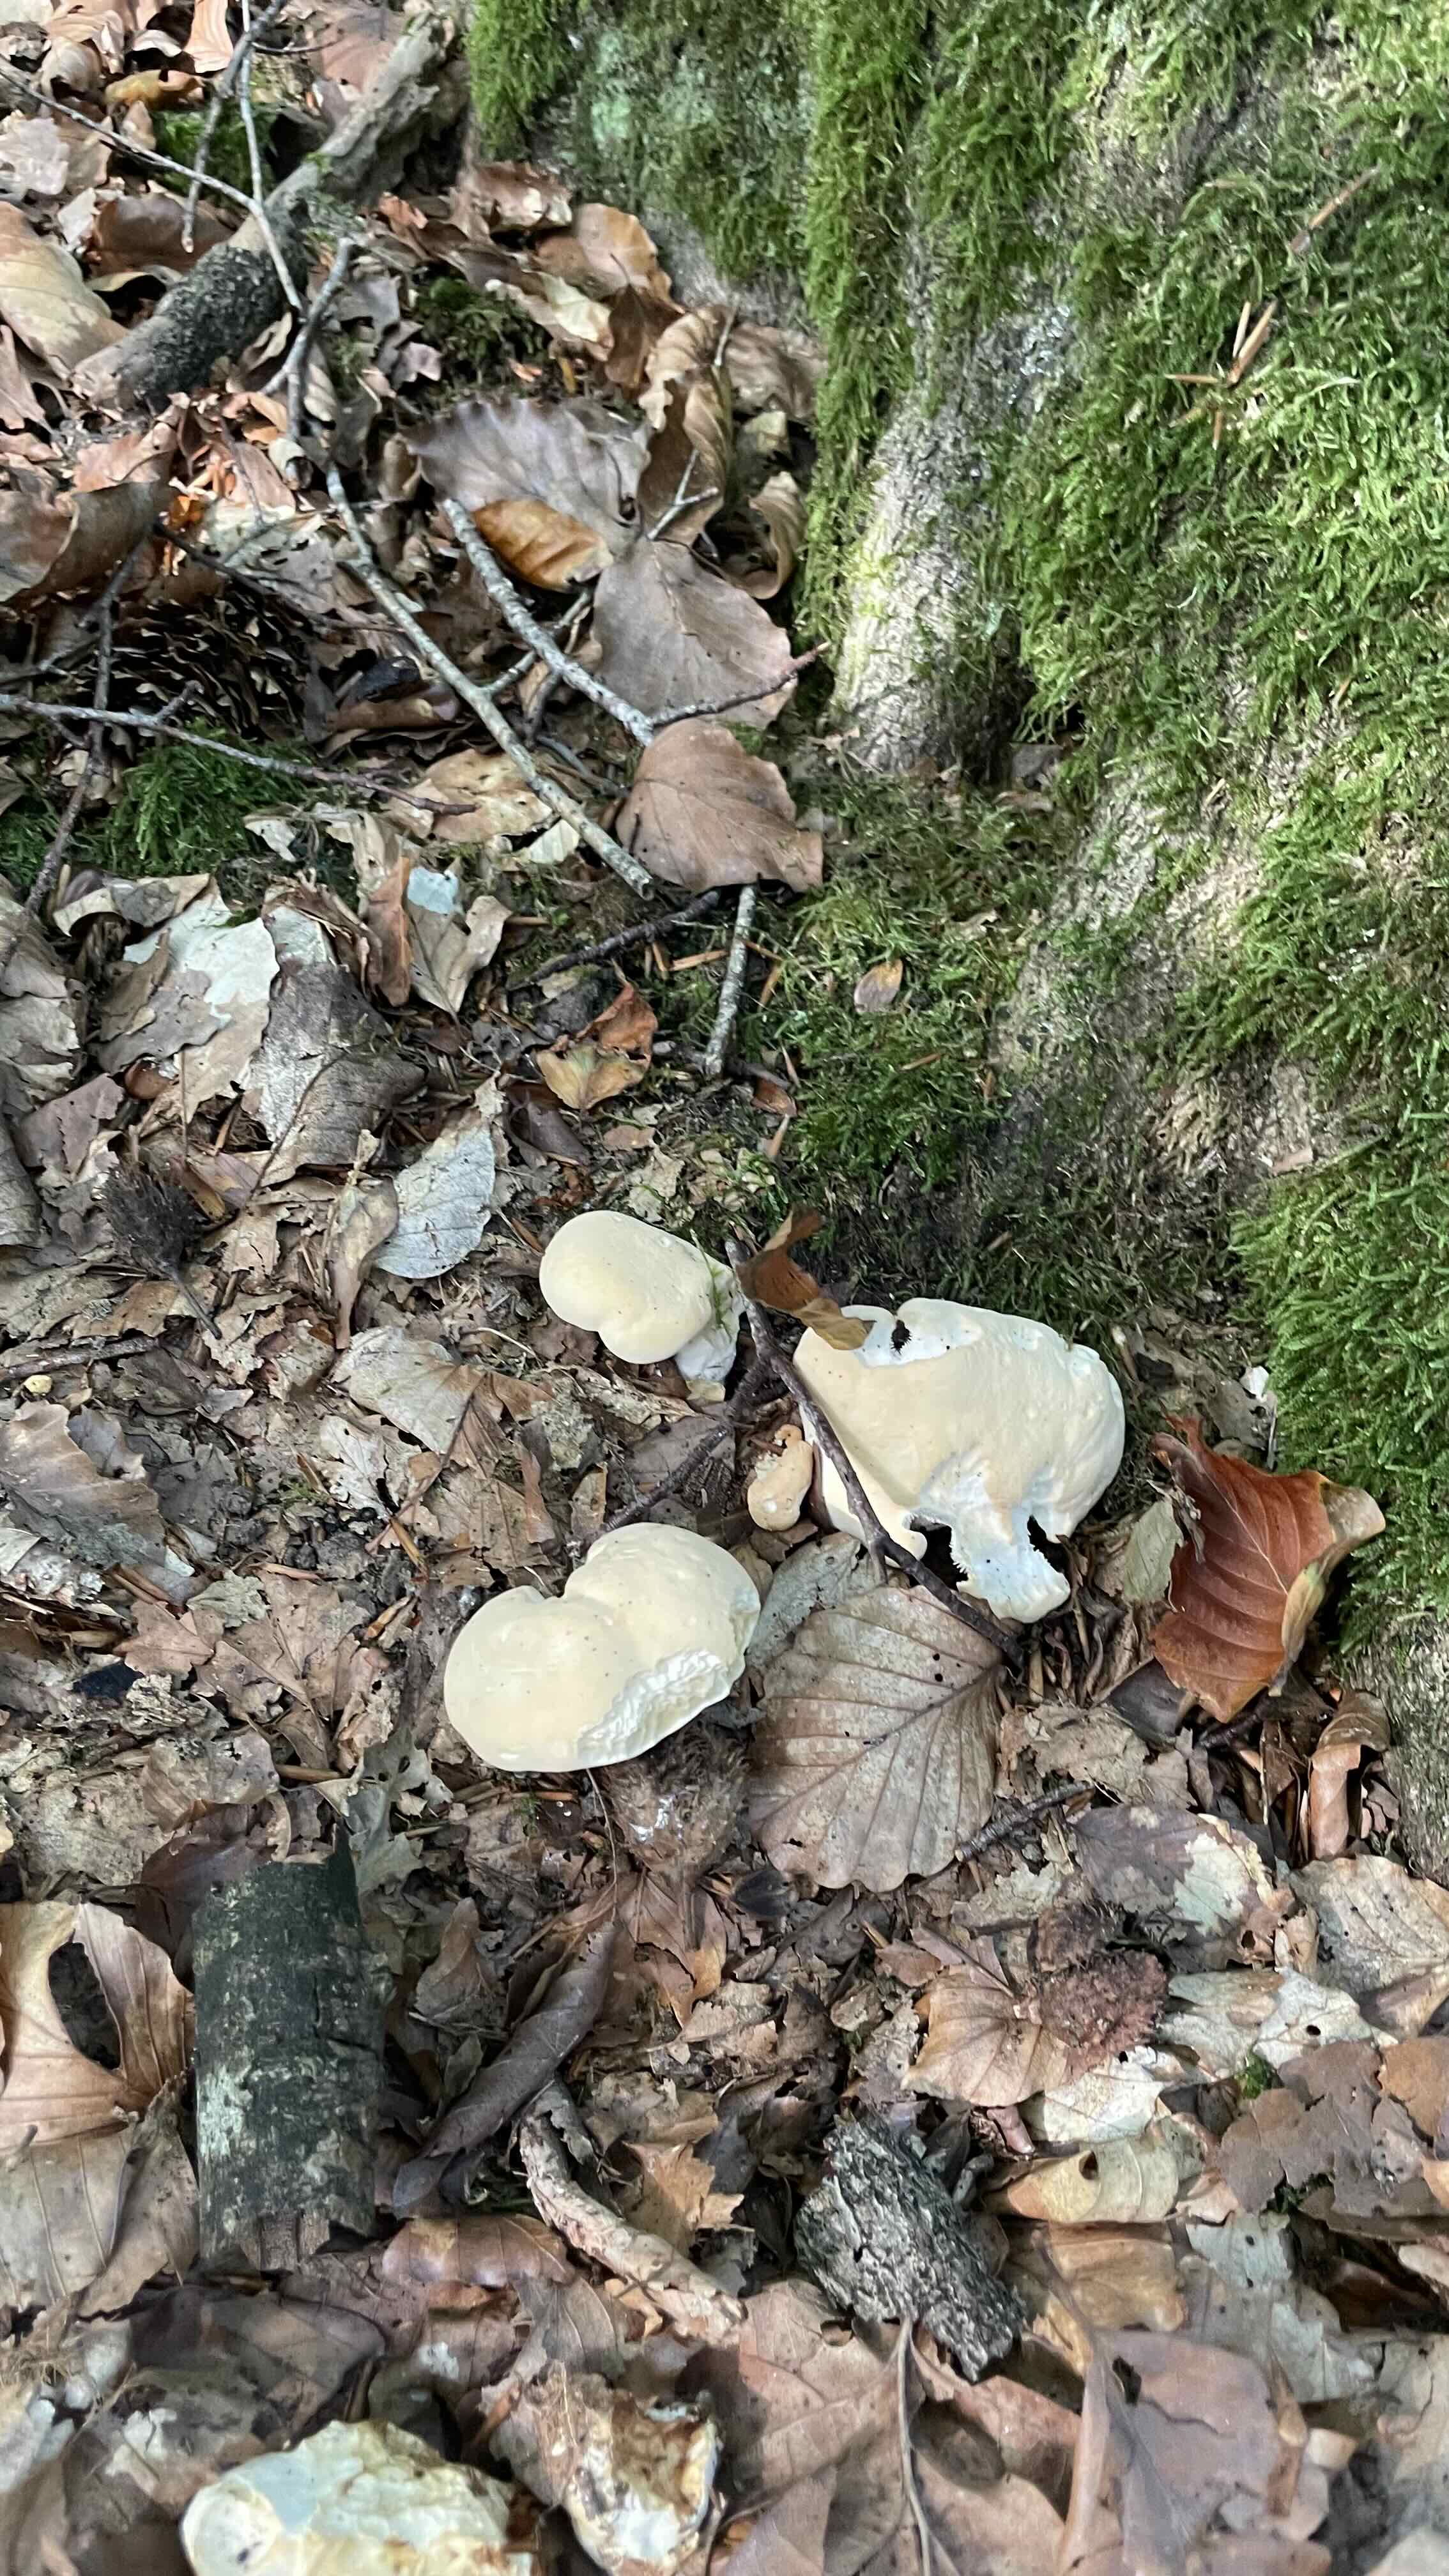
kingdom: Fungi
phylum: Basidiomycota
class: Agaricomycetes
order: Cantharellales
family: Hydnaceae
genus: Hydnum
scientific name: Hydnum repandum
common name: almindelig pigsvamp
